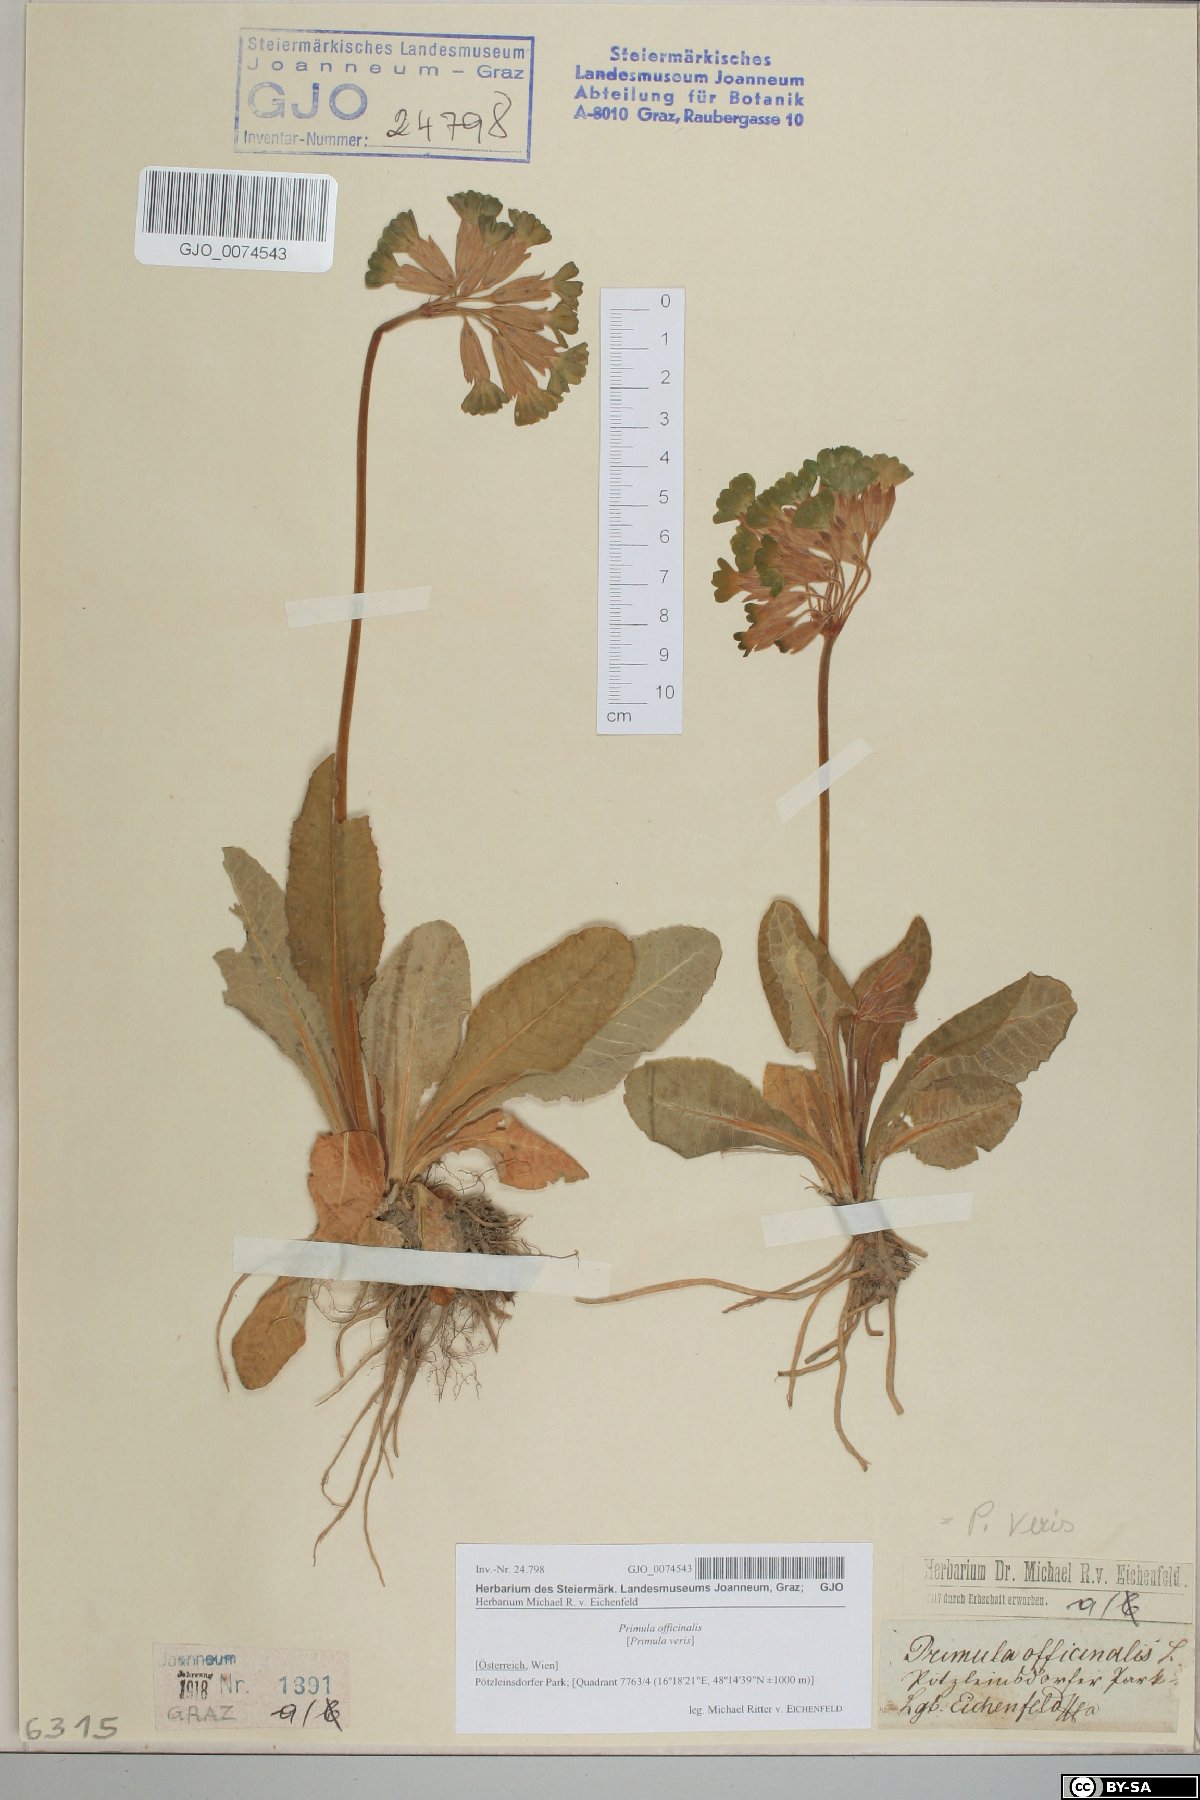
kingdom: Plantae
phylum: Tracheophyta
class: Magnoliopsida
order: Ericales
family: Primulaceae
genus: Primula
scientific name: Primula veris
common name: Cowslip
